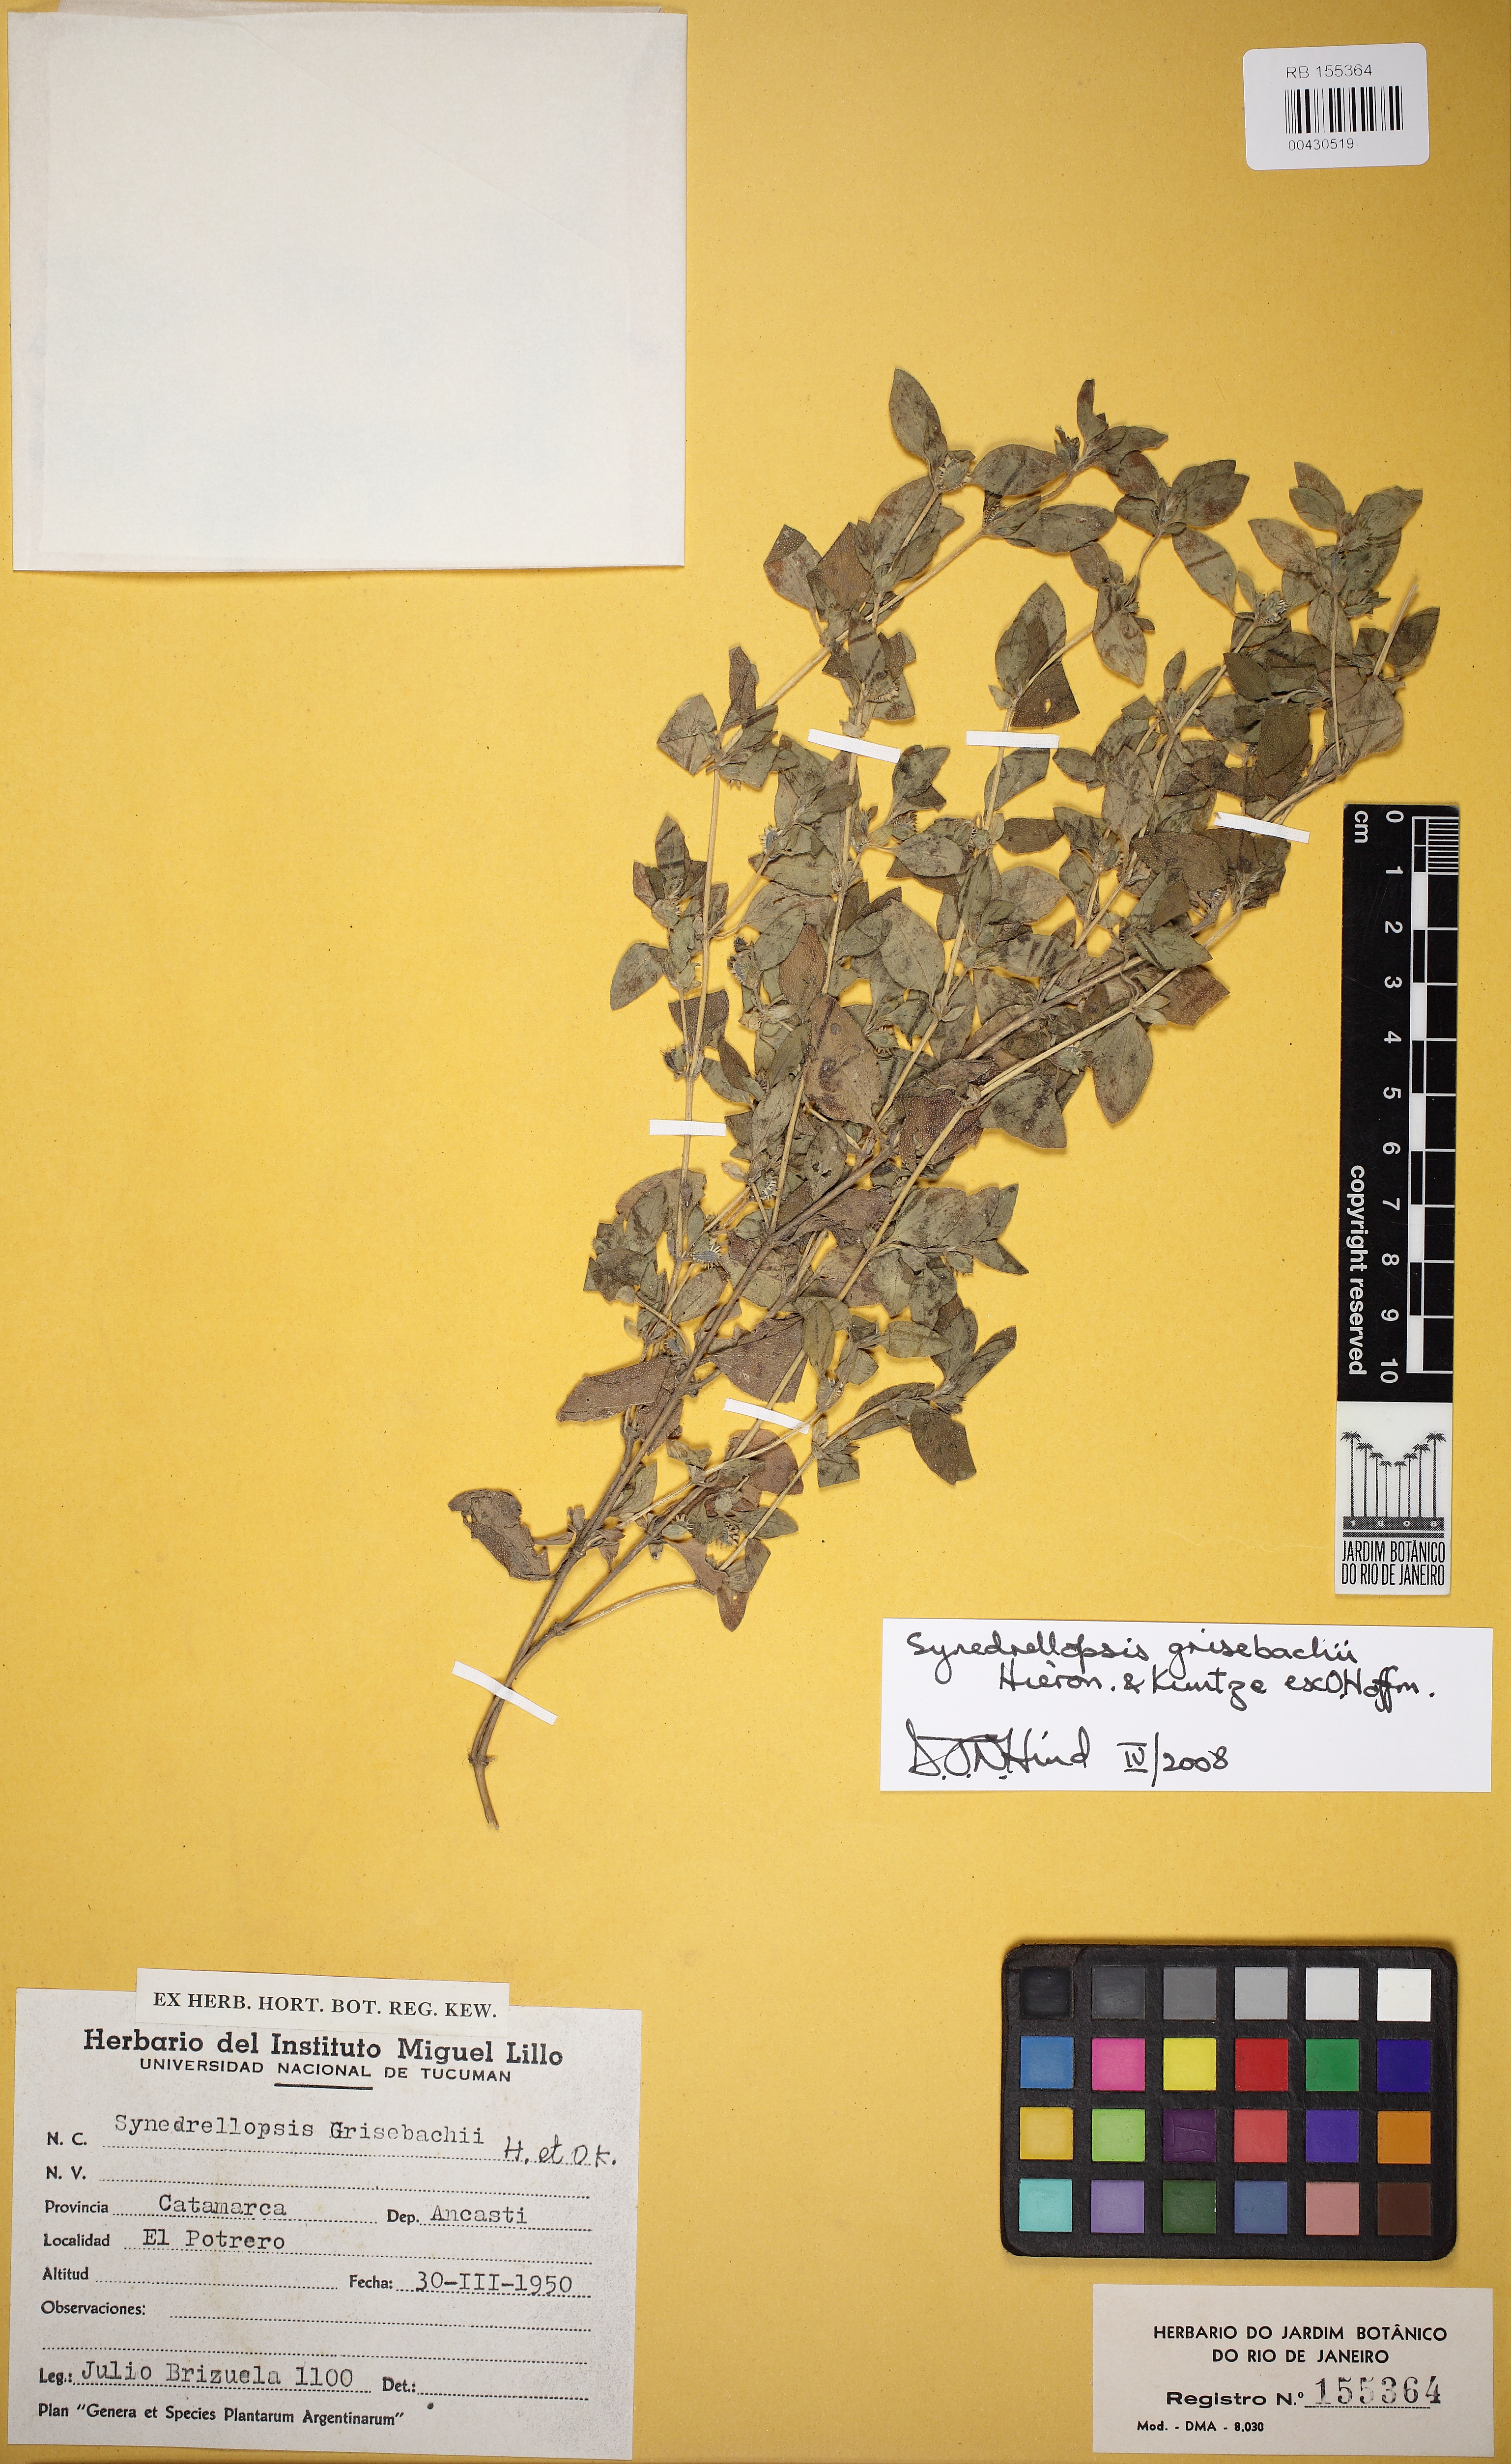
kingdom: Plantae
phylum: Tracheophyta
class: Magnoliopsida
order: Asterales
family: Asteraceae
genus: Synedrellopsis
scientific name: Synedrellopsis grisebachii
